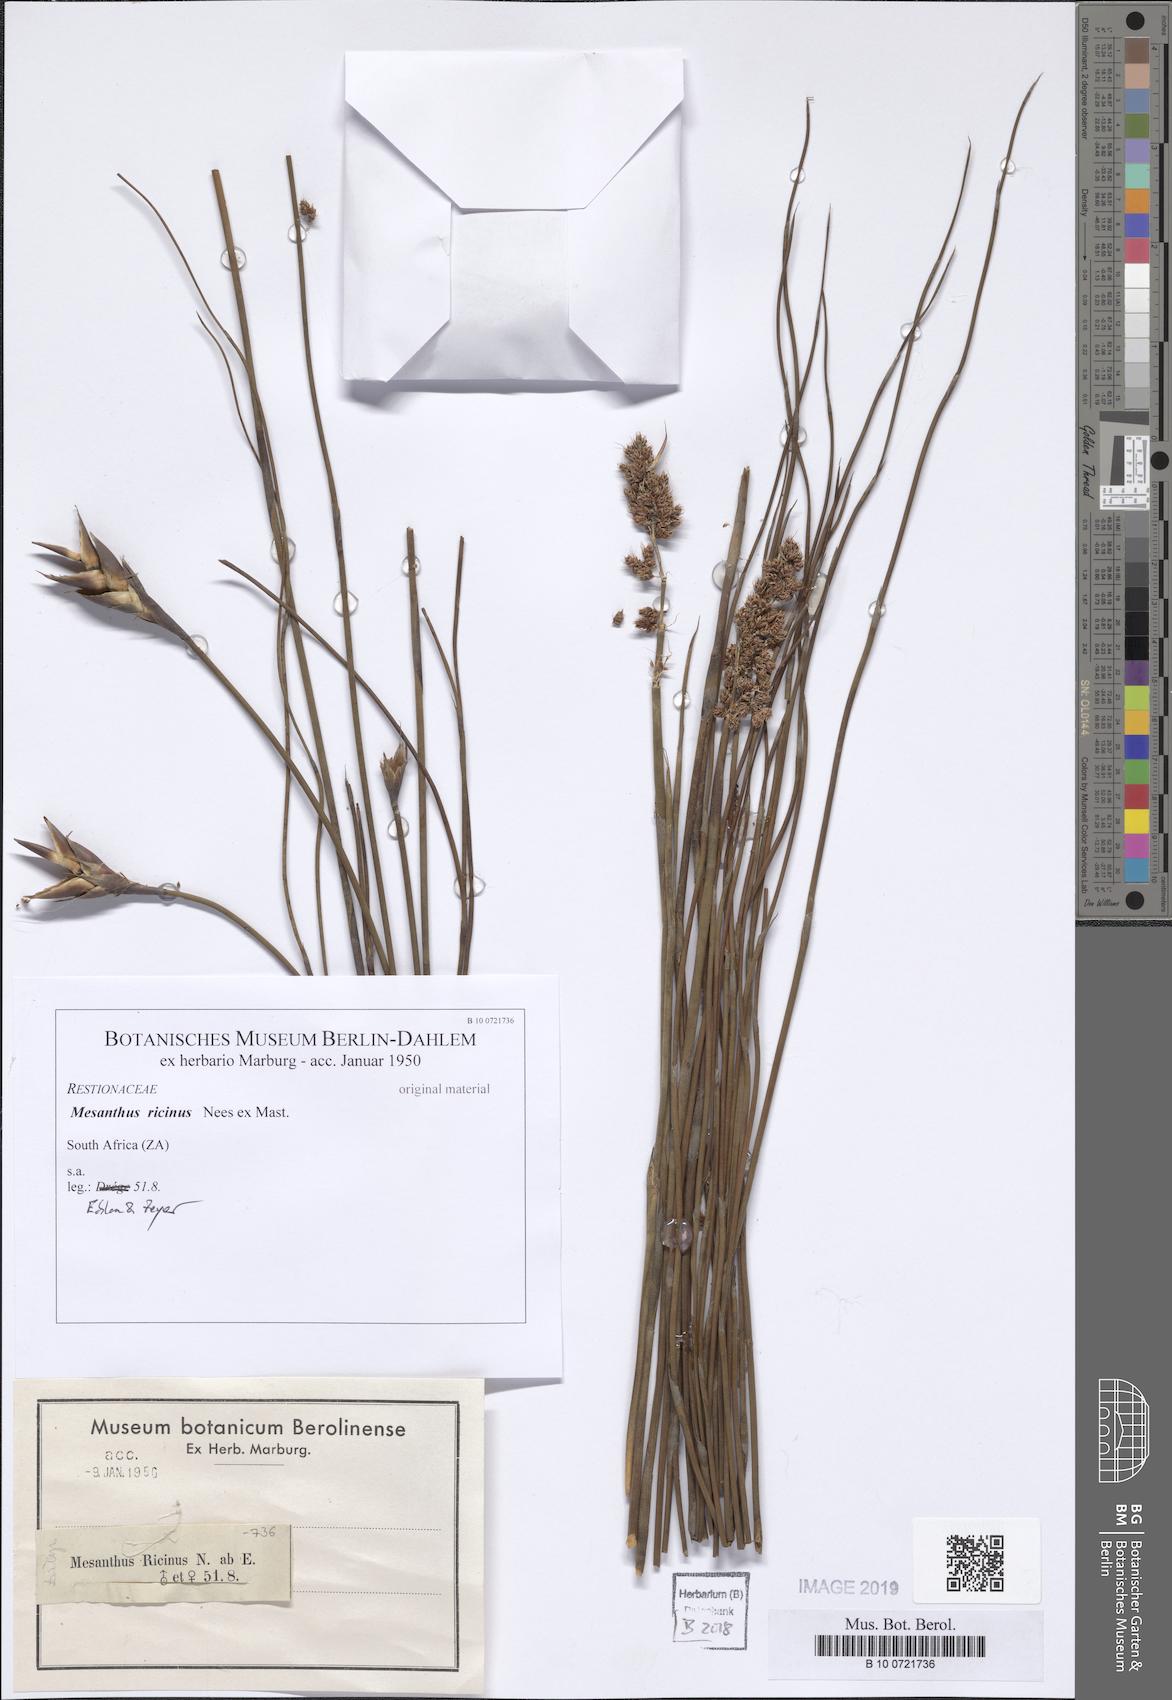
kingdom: Plantae
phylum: Tracheophyta
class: Liliopsida
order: Poales
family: Restionaceae
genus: Cannomois
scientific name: Cannomois scirpoides
